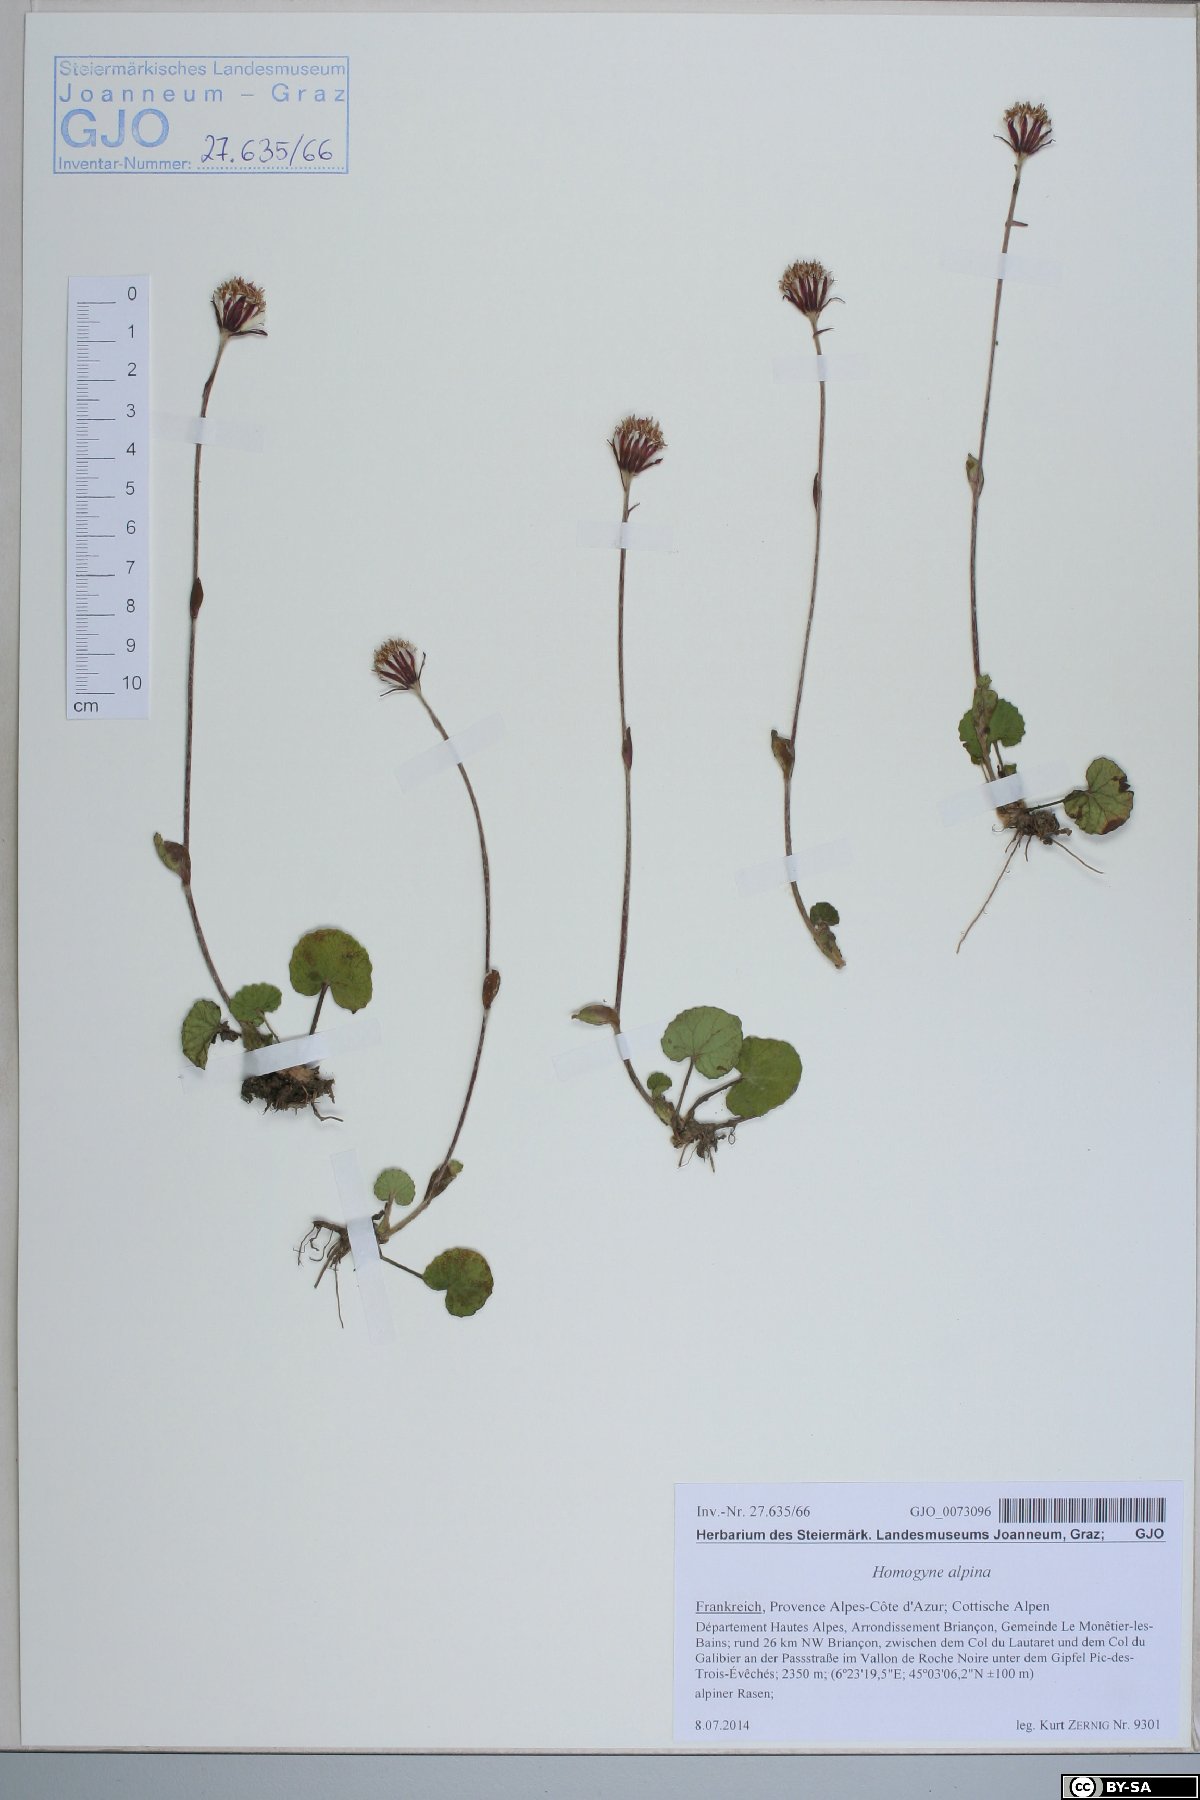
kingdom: Plantae
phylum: Tracheophyta
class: Magnoliopsida
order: Asterales
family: Asteraceae
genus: Homogyne
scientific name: Homogyne alpina
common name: Purple colt's-foot
